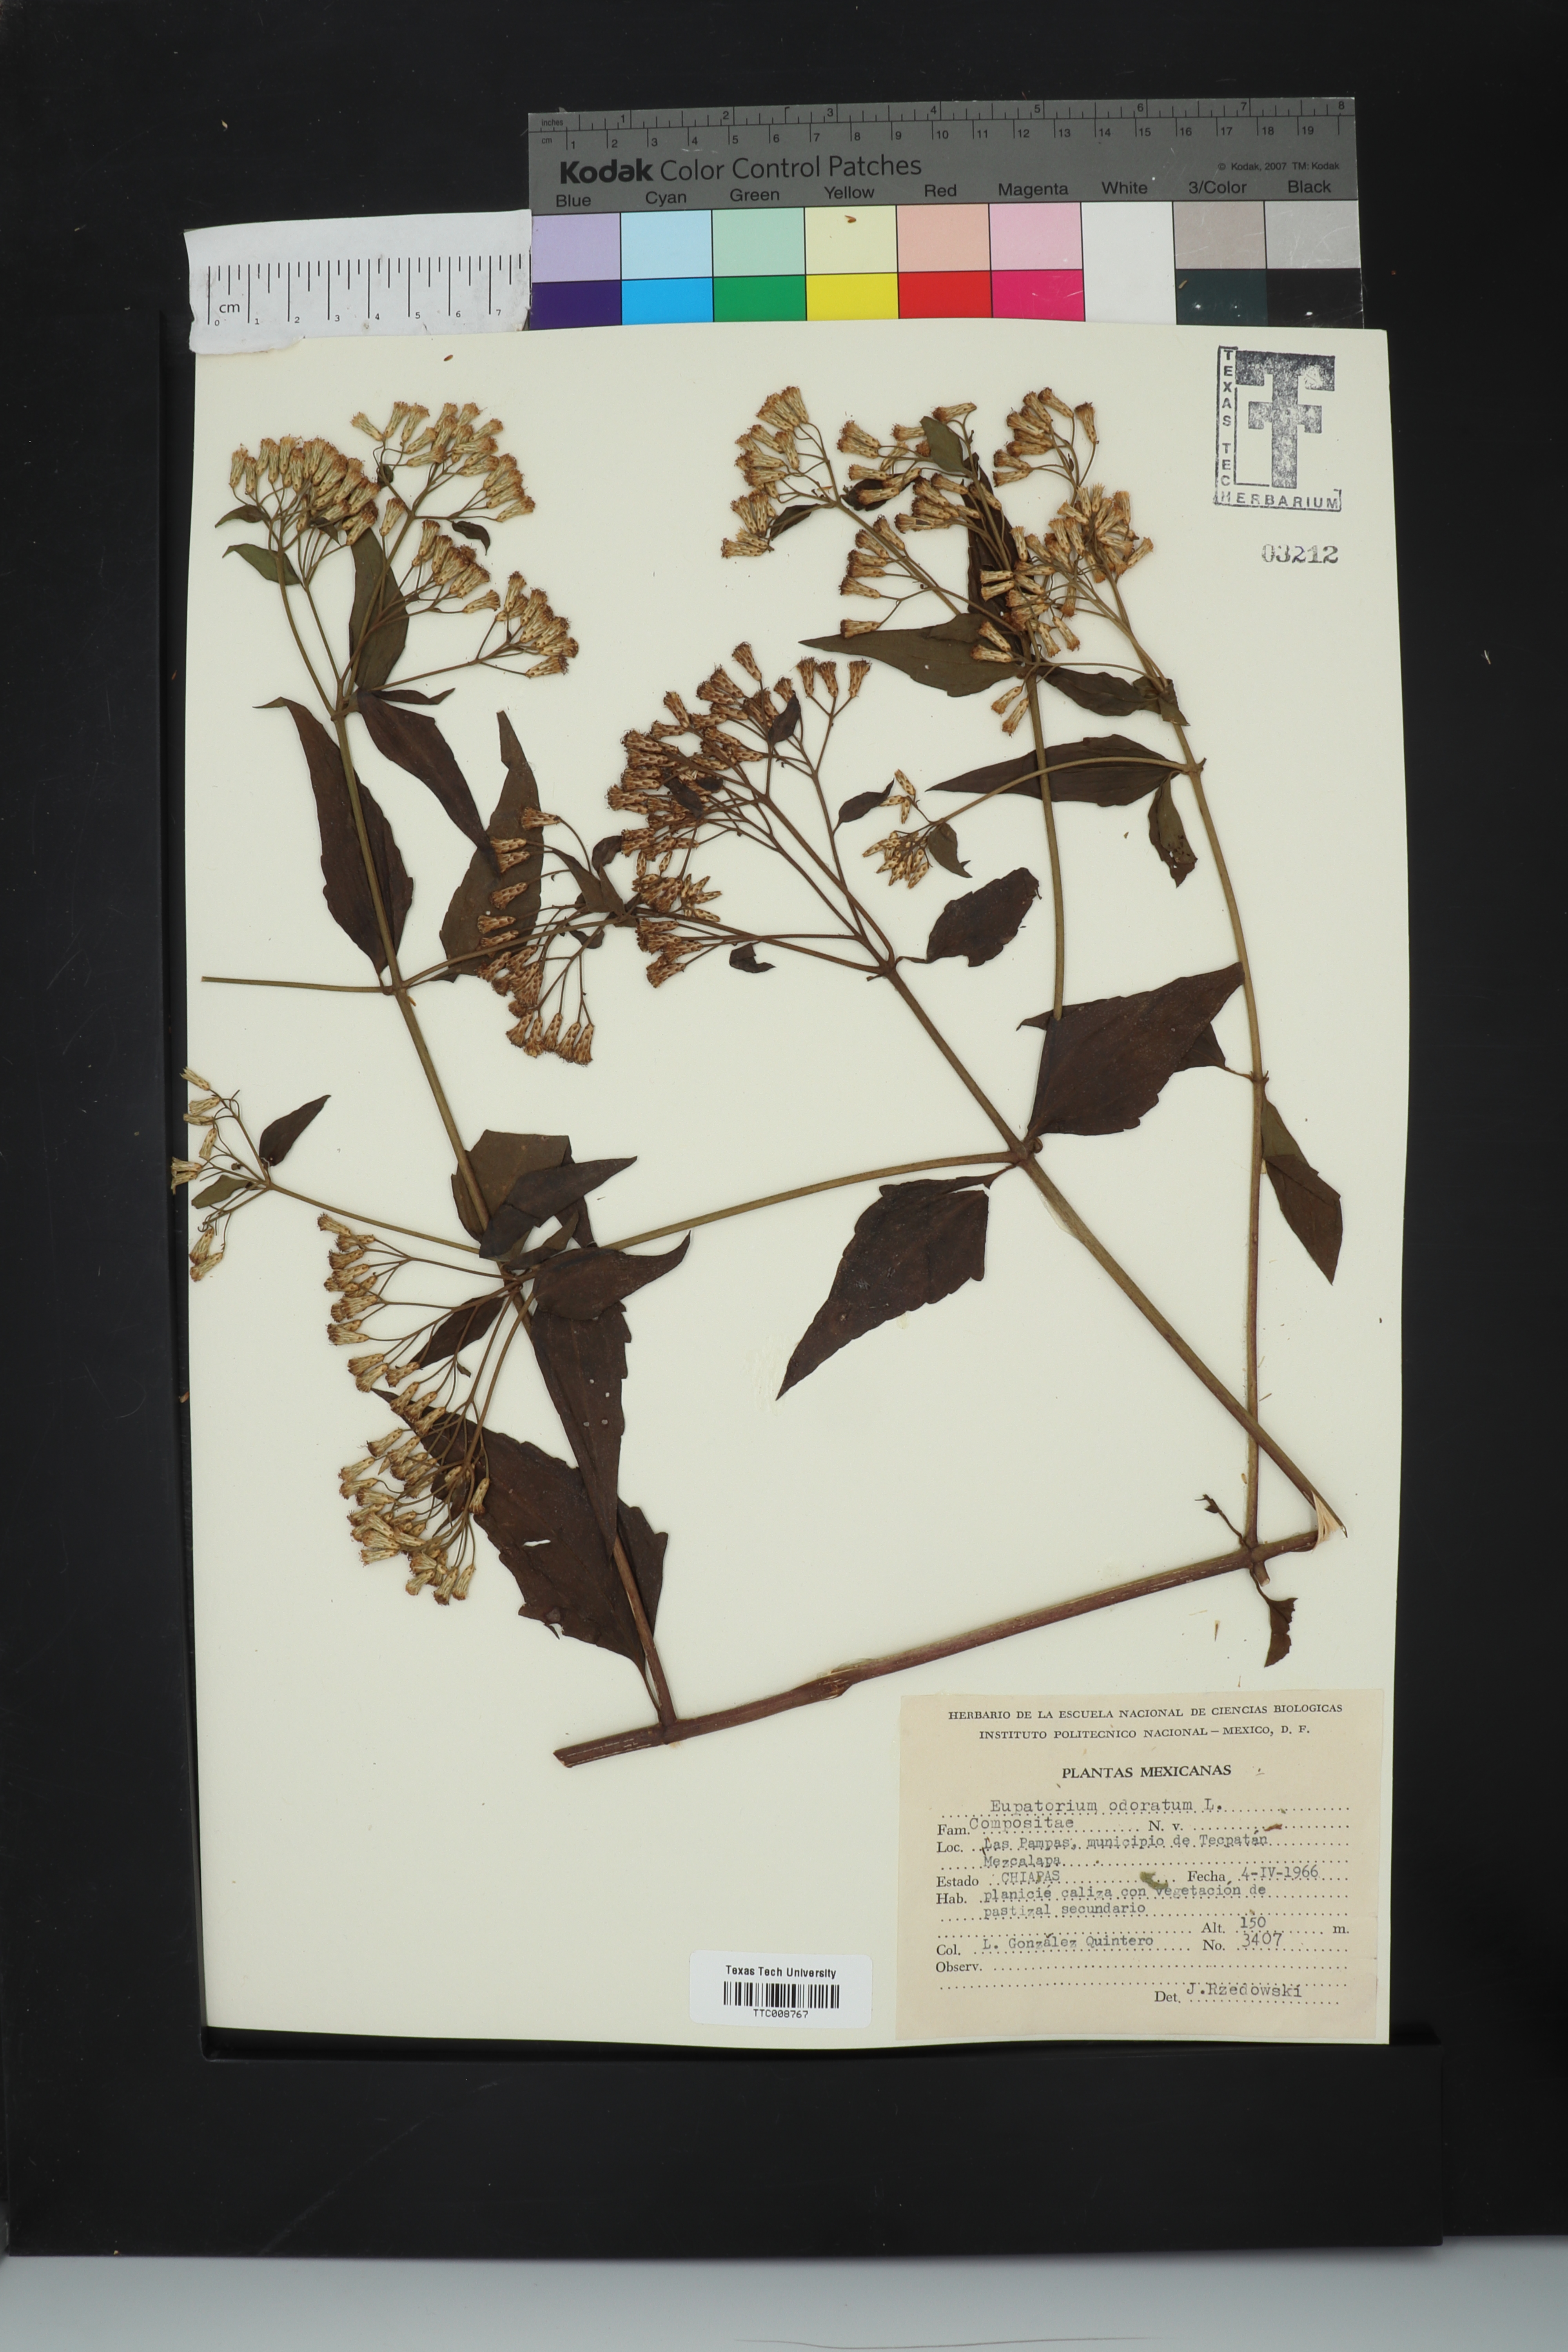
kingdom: Plantae
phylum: Tracheophyta
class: Magnoliopsida
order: Asterales
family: Asteraceae
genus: Ageratina
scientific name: Ageratina altissima
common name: White snakeroot
